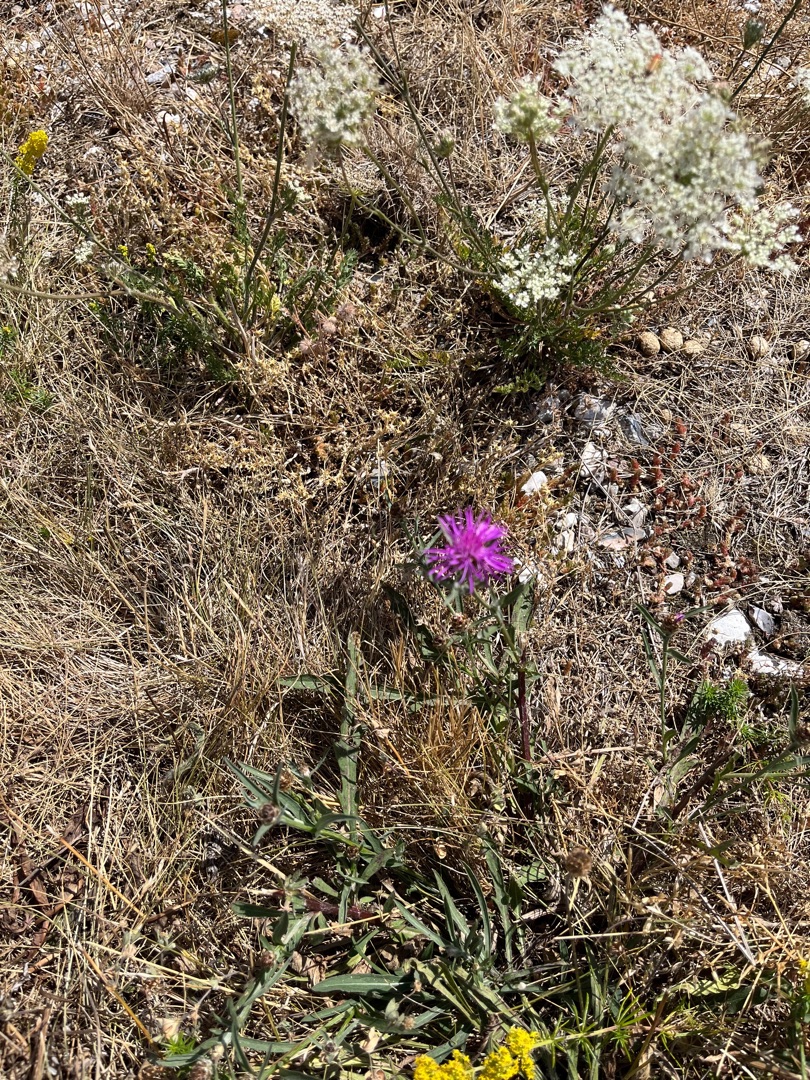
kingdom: Plantae
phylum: Tracheophyta
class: Magnoliopsida
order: Asterales
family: Asteraceae
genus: Centaurea
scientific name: Centaurea jacea
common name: Almindelig knopurt
